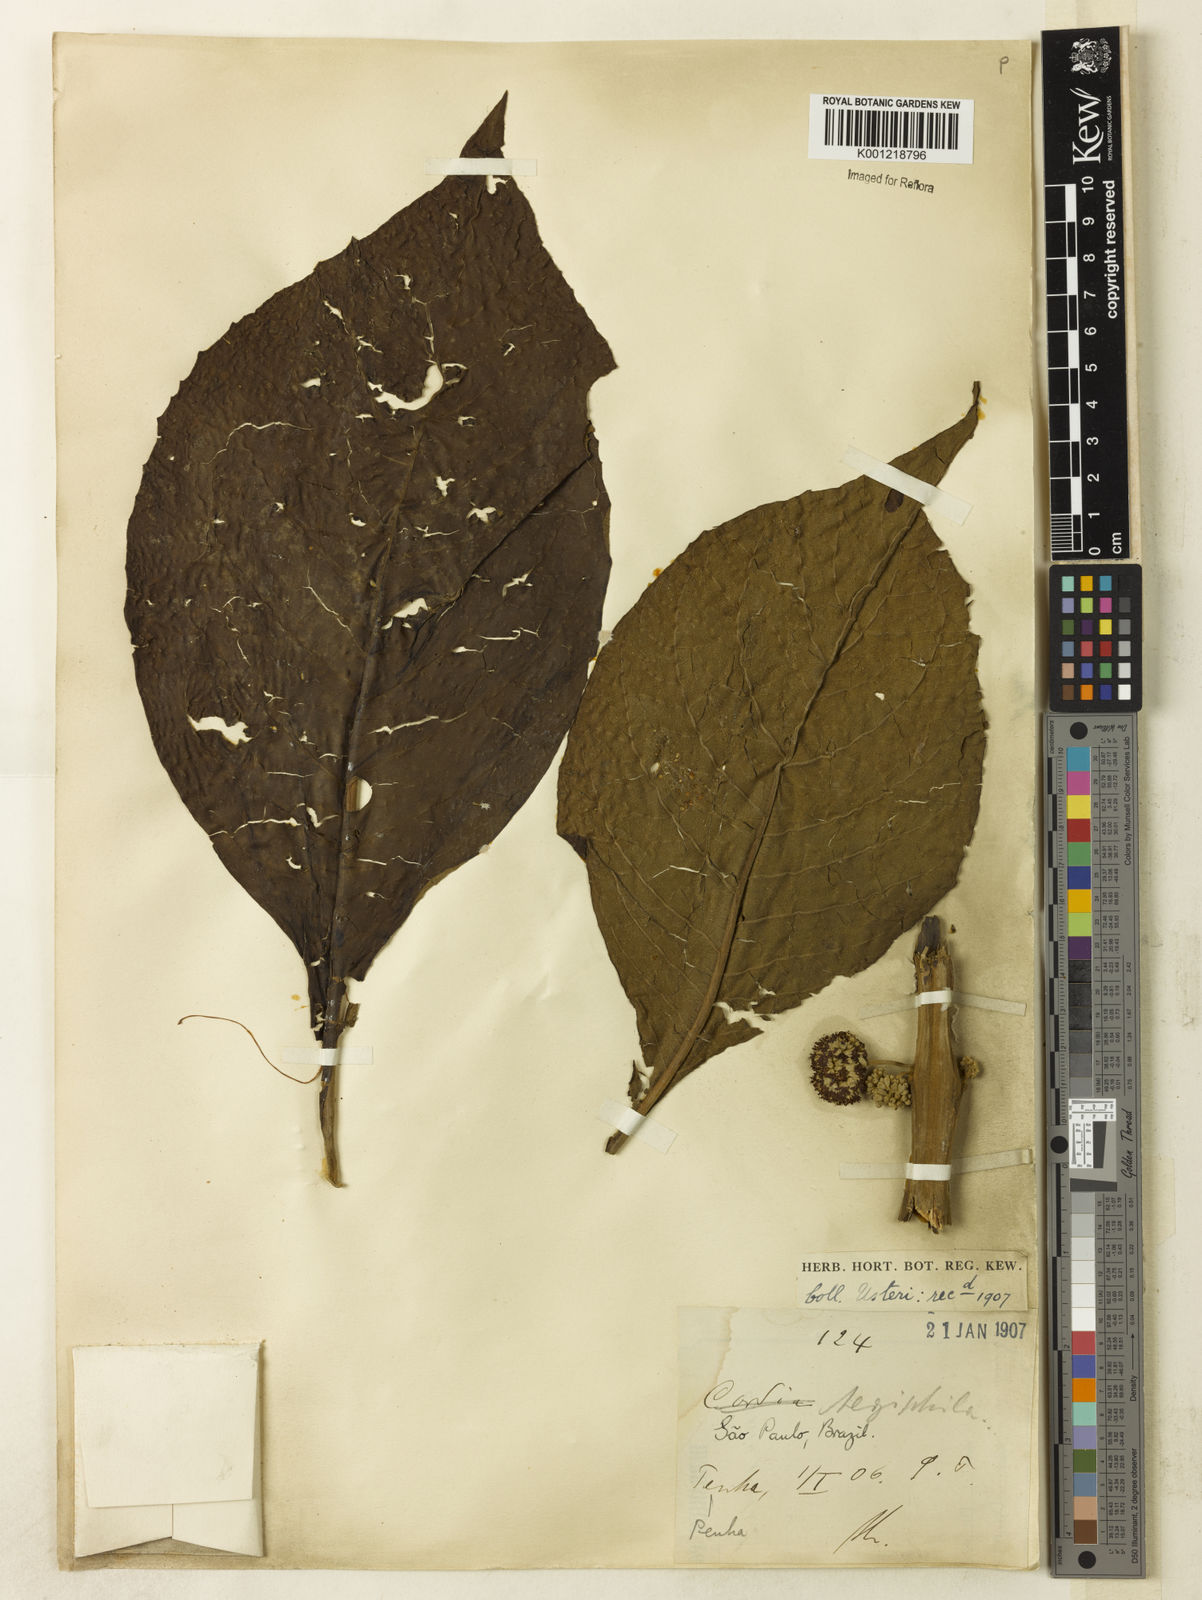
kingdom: Plantae
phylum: Tracheophyta
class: Magnoliopsida
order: Lamiales
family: Lamiaceae
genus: Aegiphila
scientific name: Aegiphila verticillata
